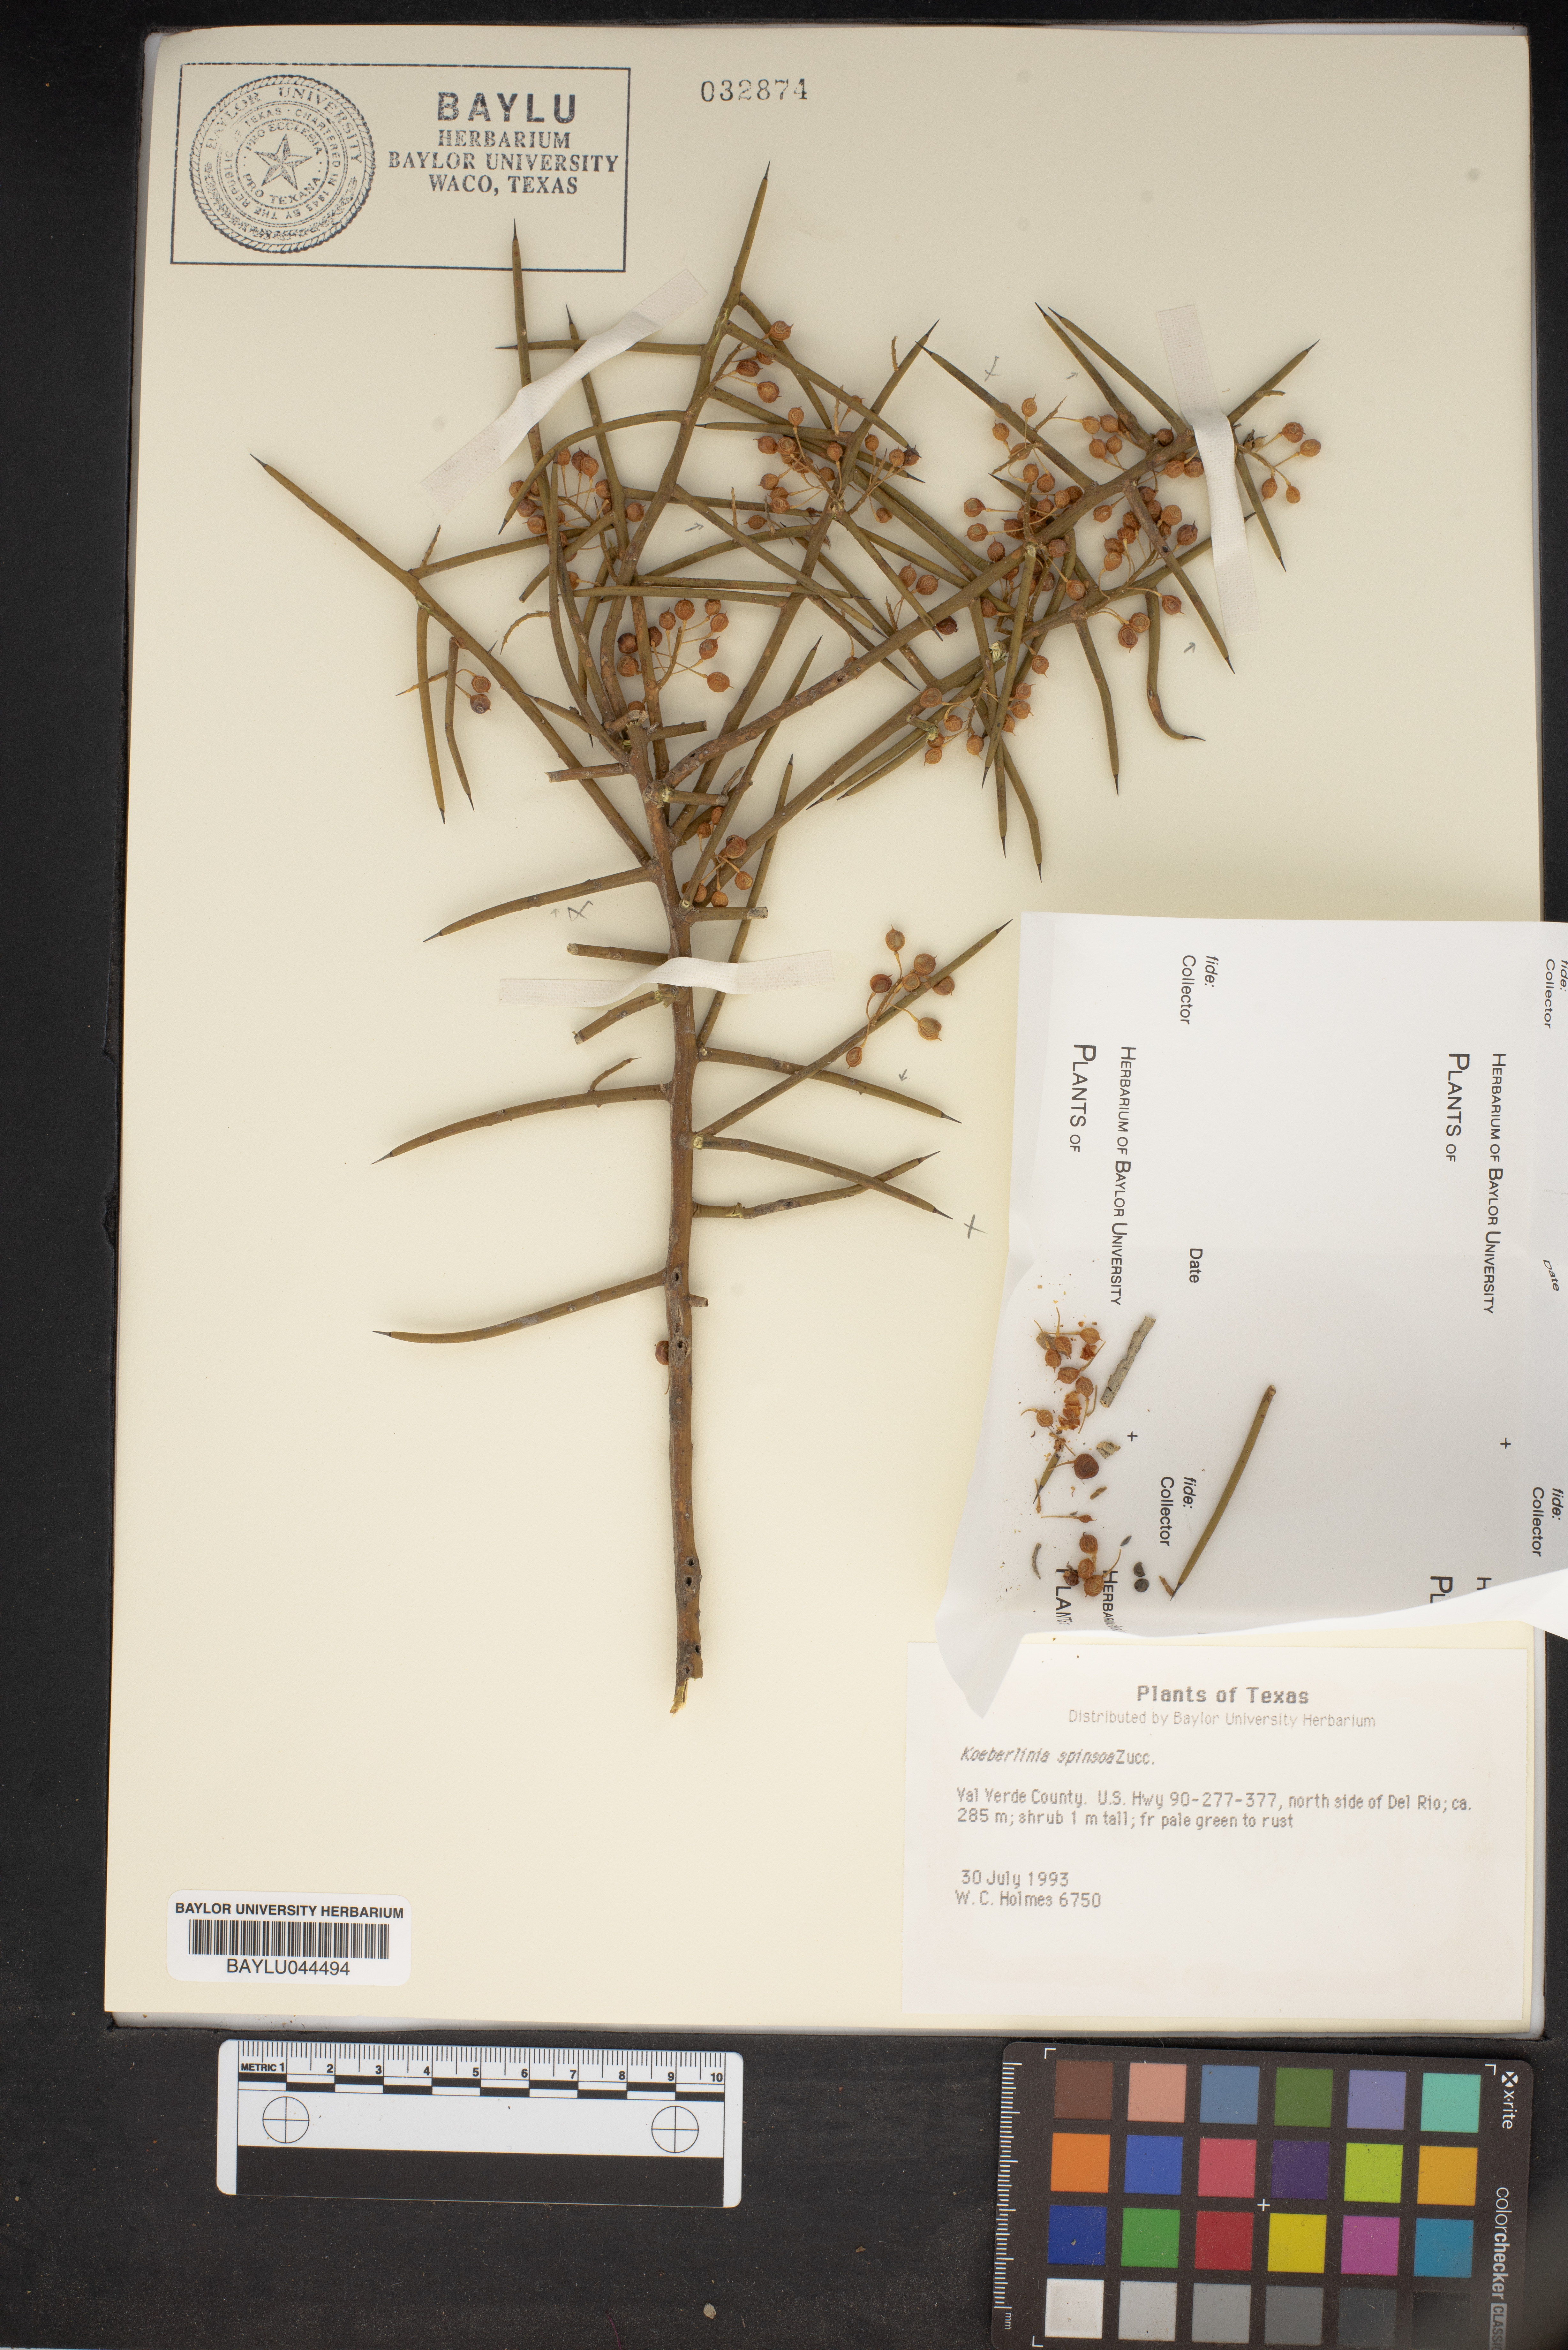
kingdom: Plantae
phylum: Tracheophyta
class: Magnoliopsida
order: Brassicales
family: Koeberliniaceae
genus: Koeberlinia
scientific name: Koeberlinia spinosa
